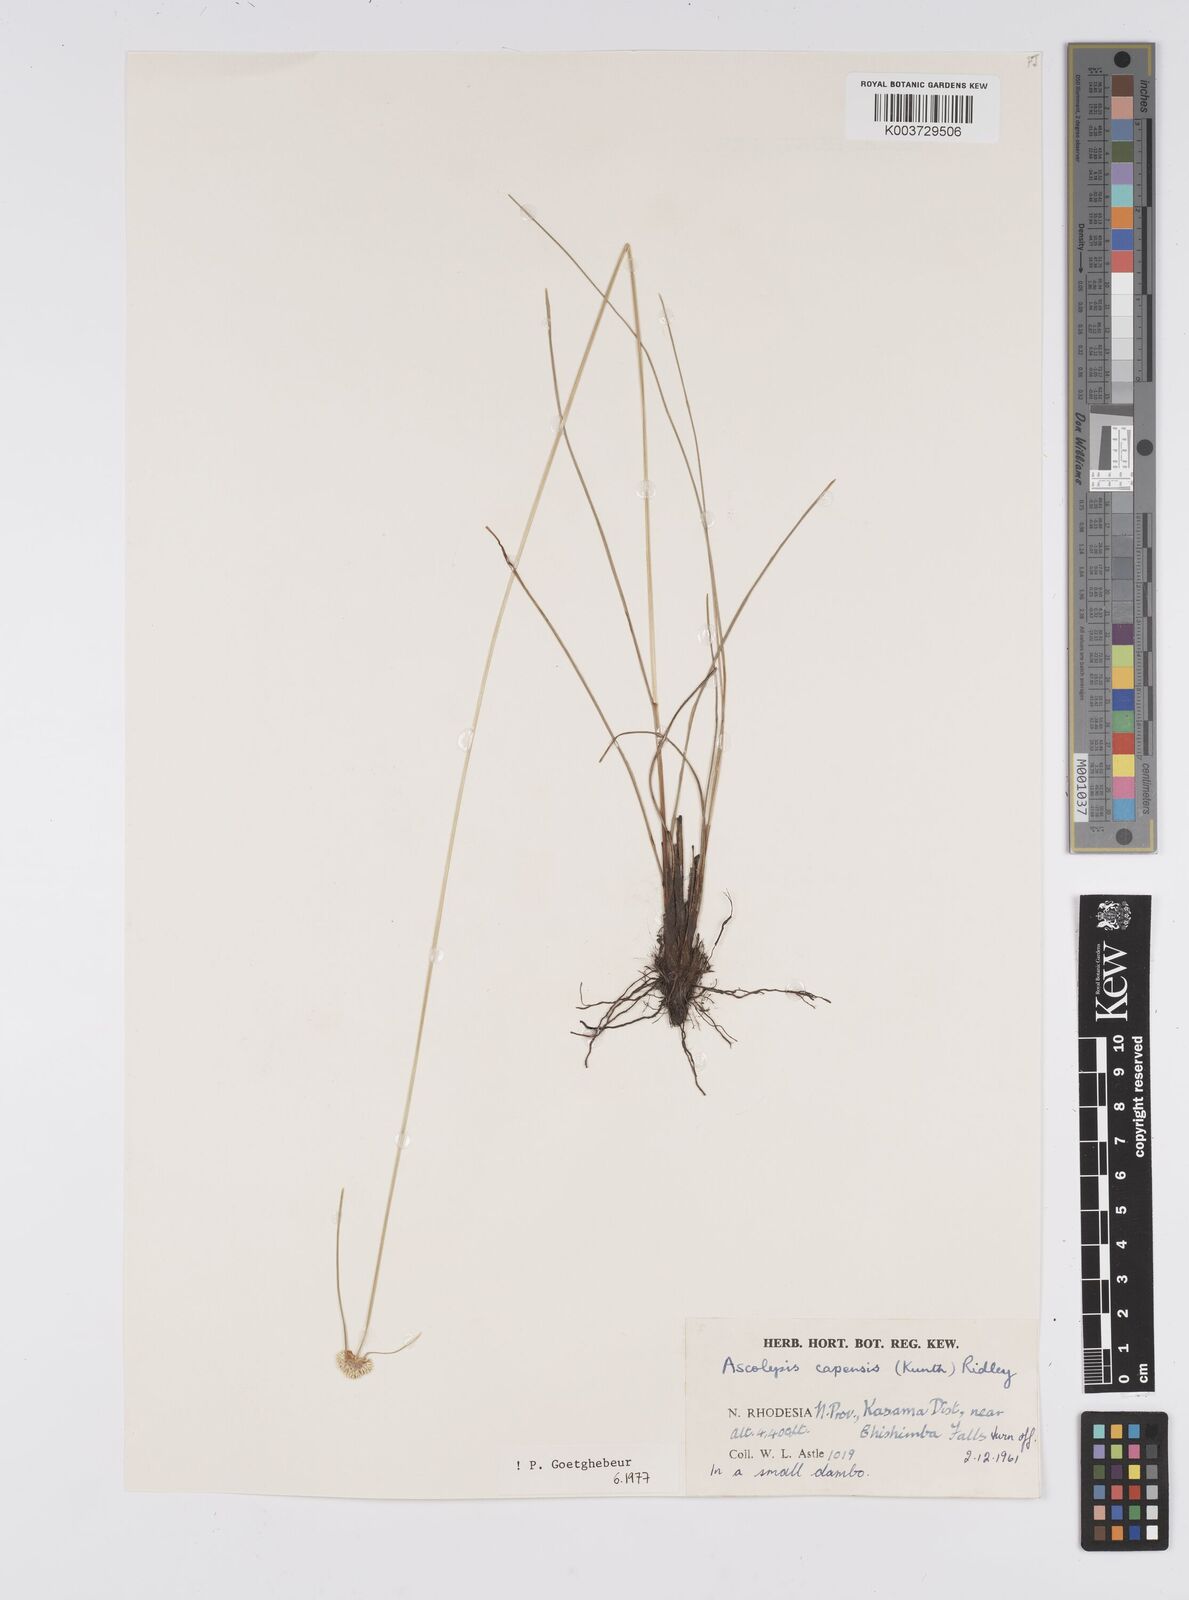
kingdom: Plantae
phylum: Tracheophyta
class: Liliopsida
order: Poales
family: Cyperaceae
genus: Cyperus
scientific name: Cyperus
